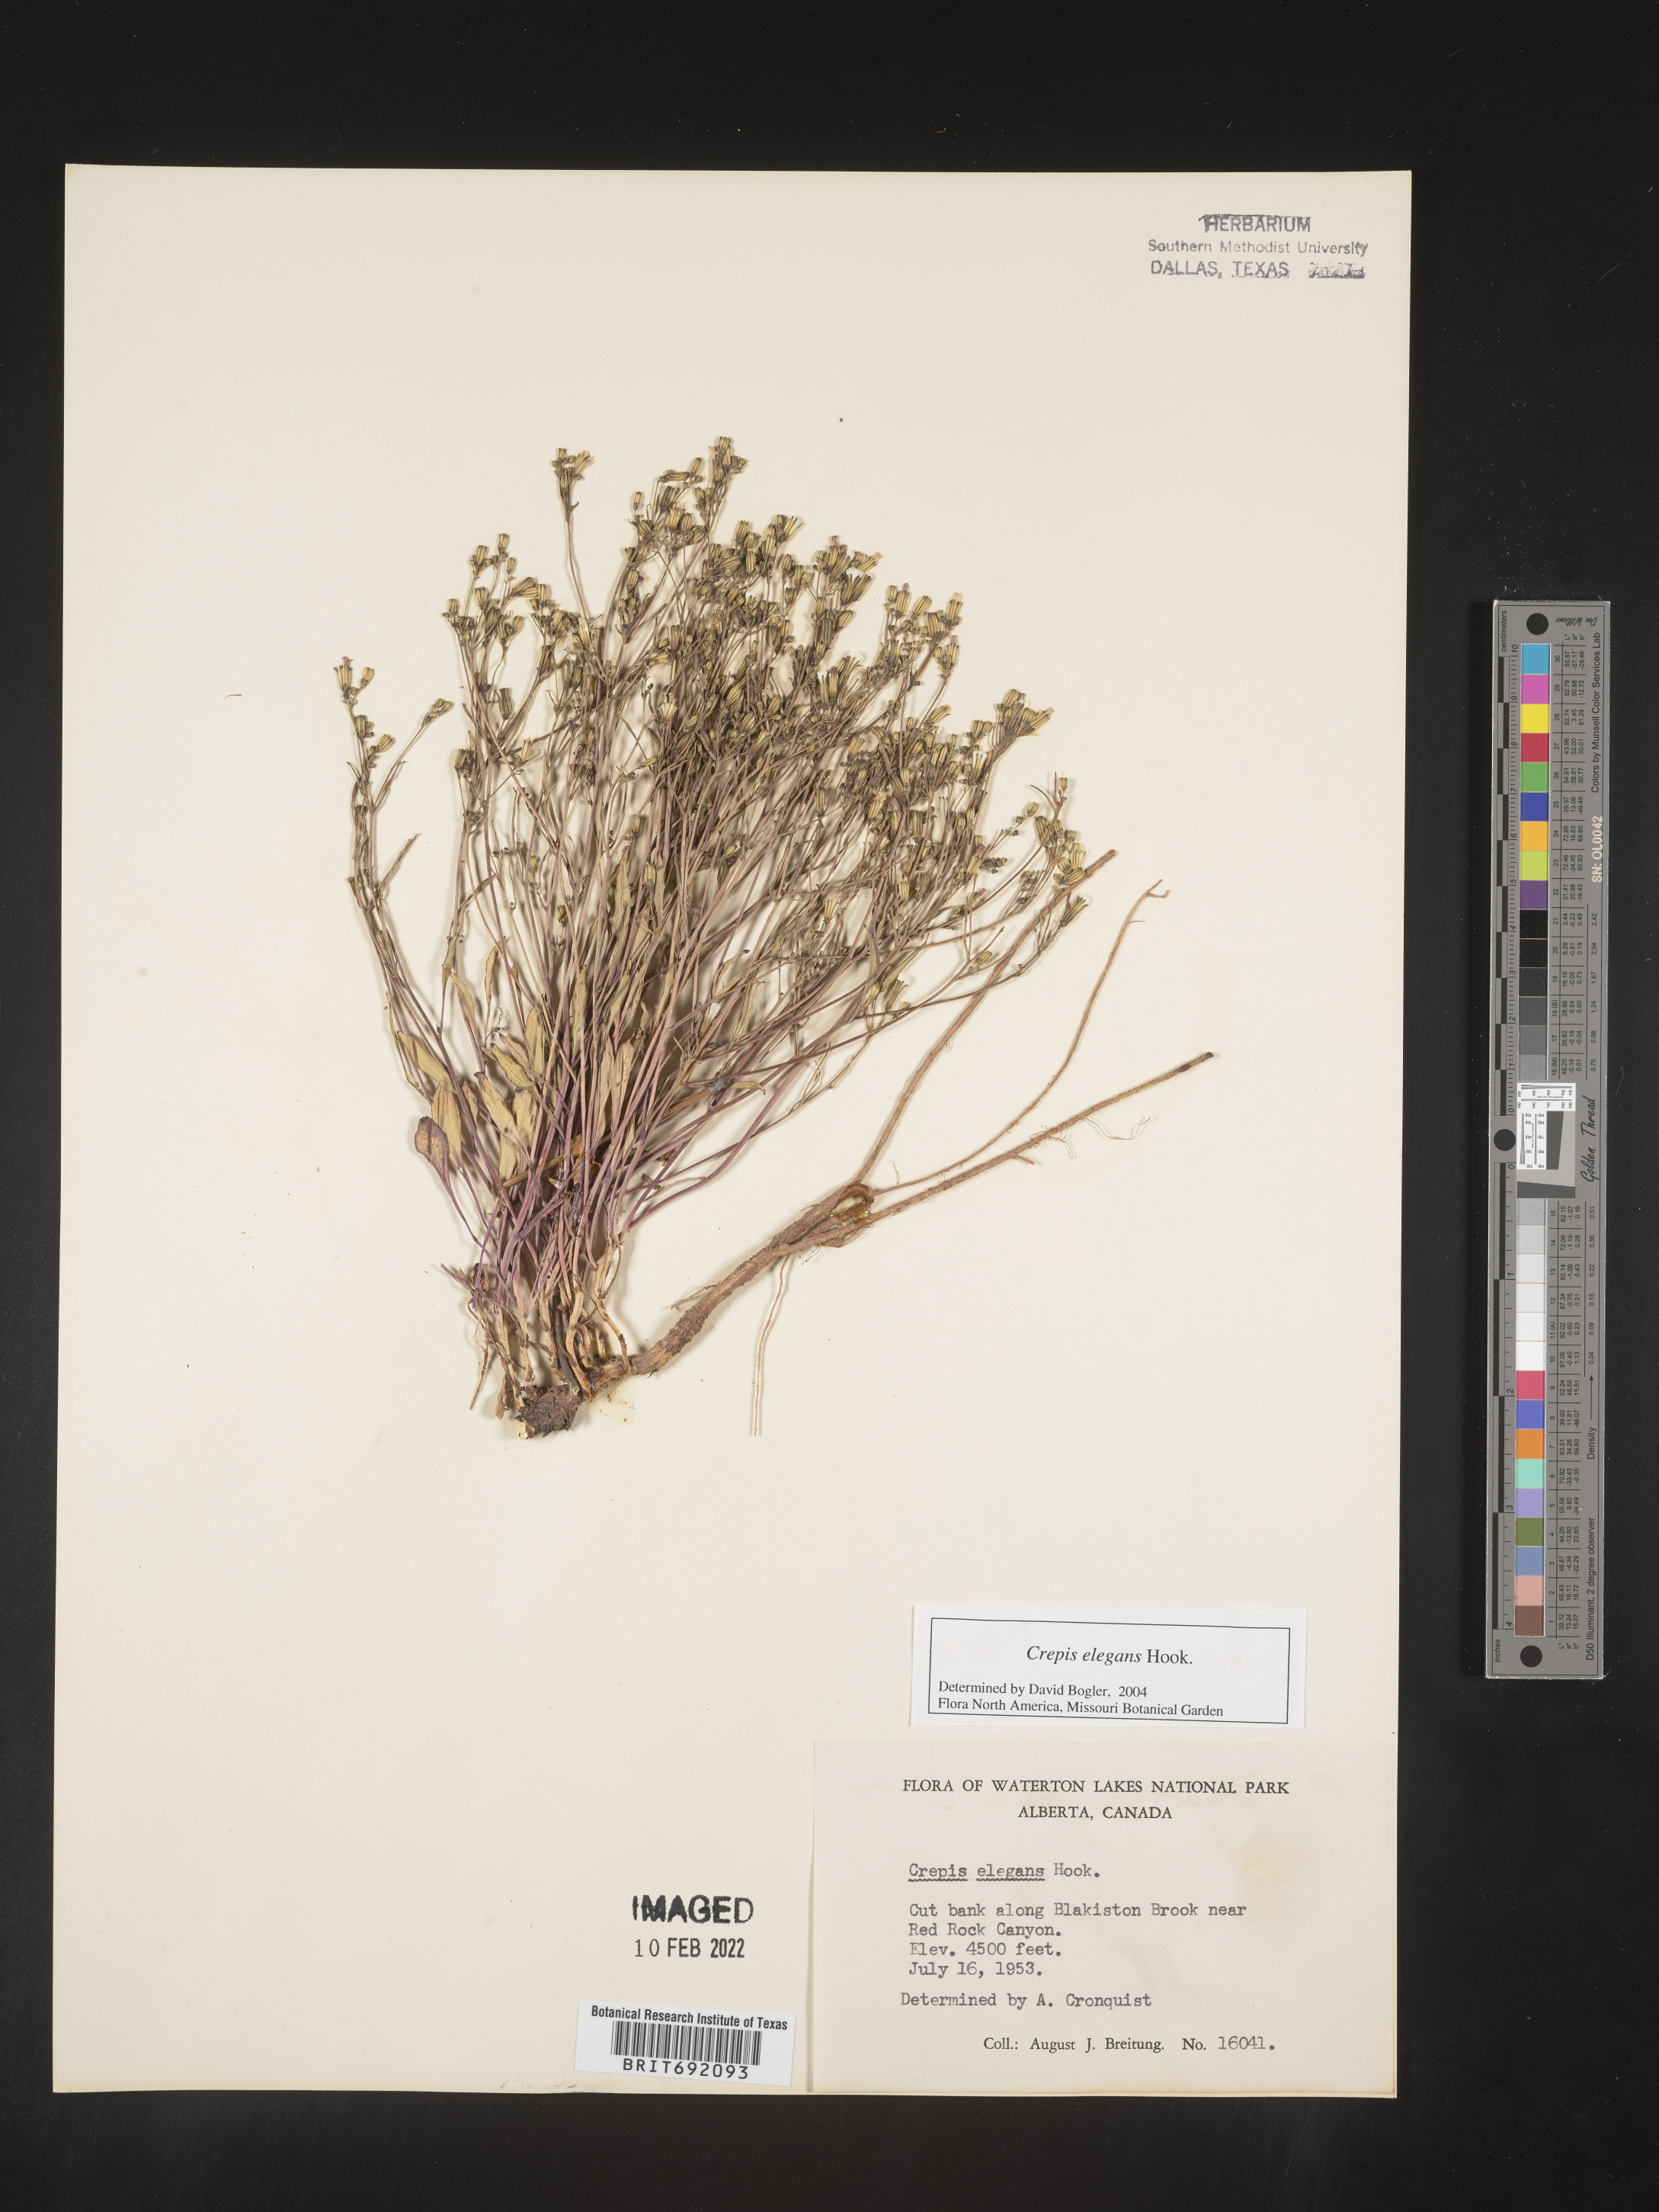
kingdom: Plantae
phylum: Tracheophyta
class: Magnoliopsida
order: Asterales
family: Asteraceae
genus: Crepis
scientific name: Crepis
